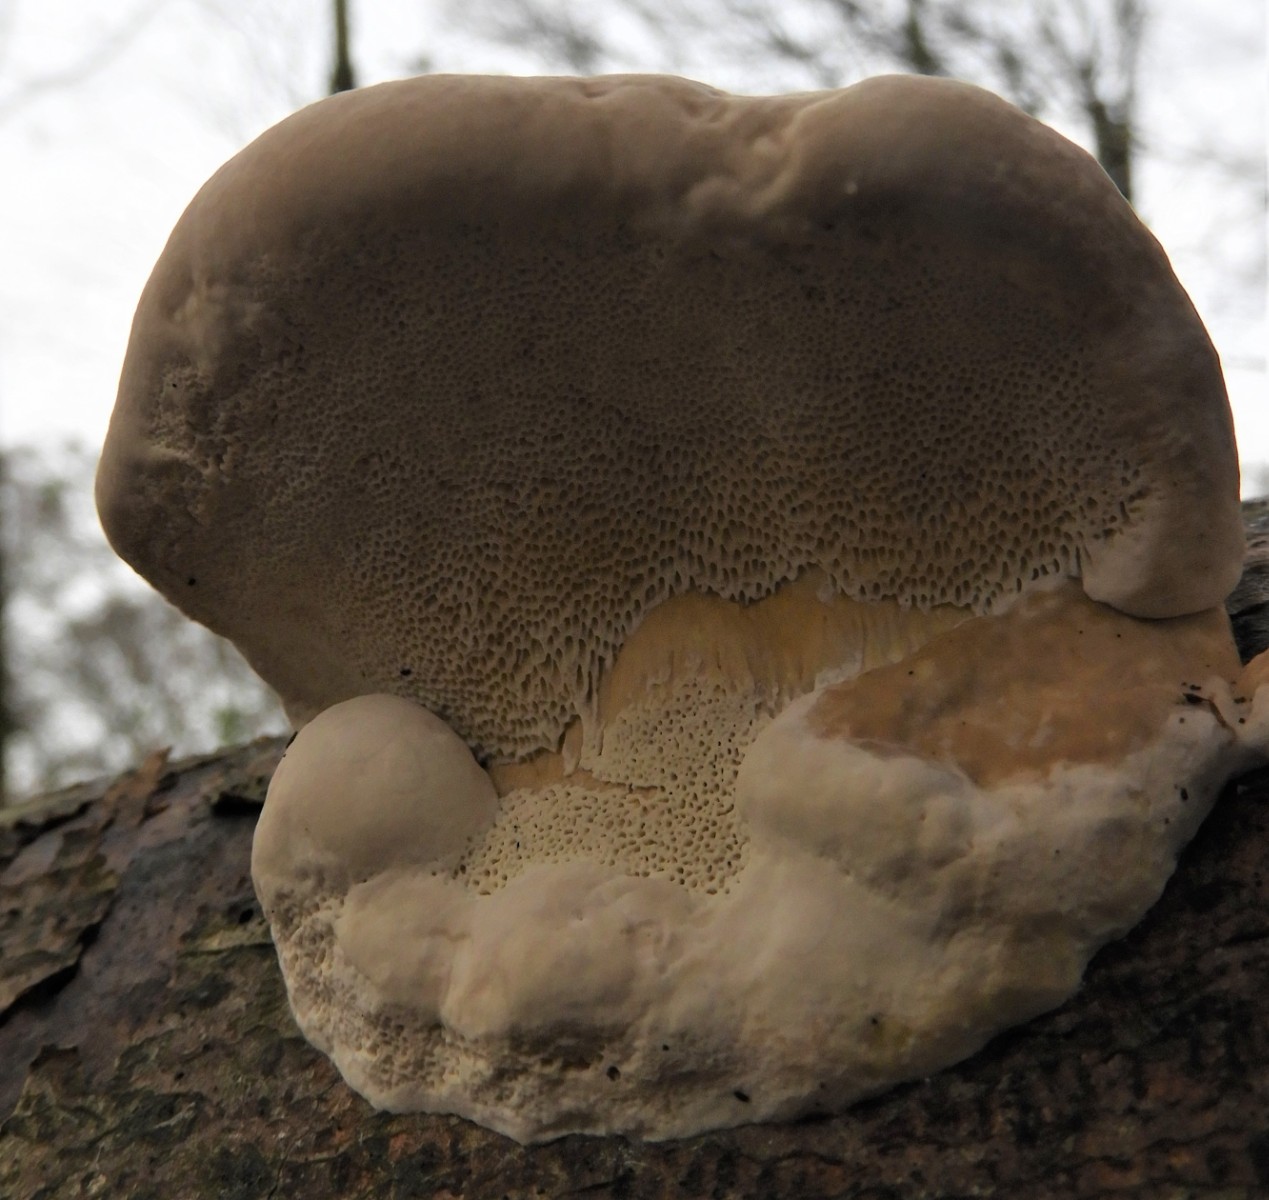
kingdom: Fungi
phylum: Basidiomycota
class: Agaricomycetes
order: Polyporales
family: Fomitopsidaceae
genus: Fomitopsis
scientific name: Fomitopsis pinicola
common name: randbæltet hovporesvamp
